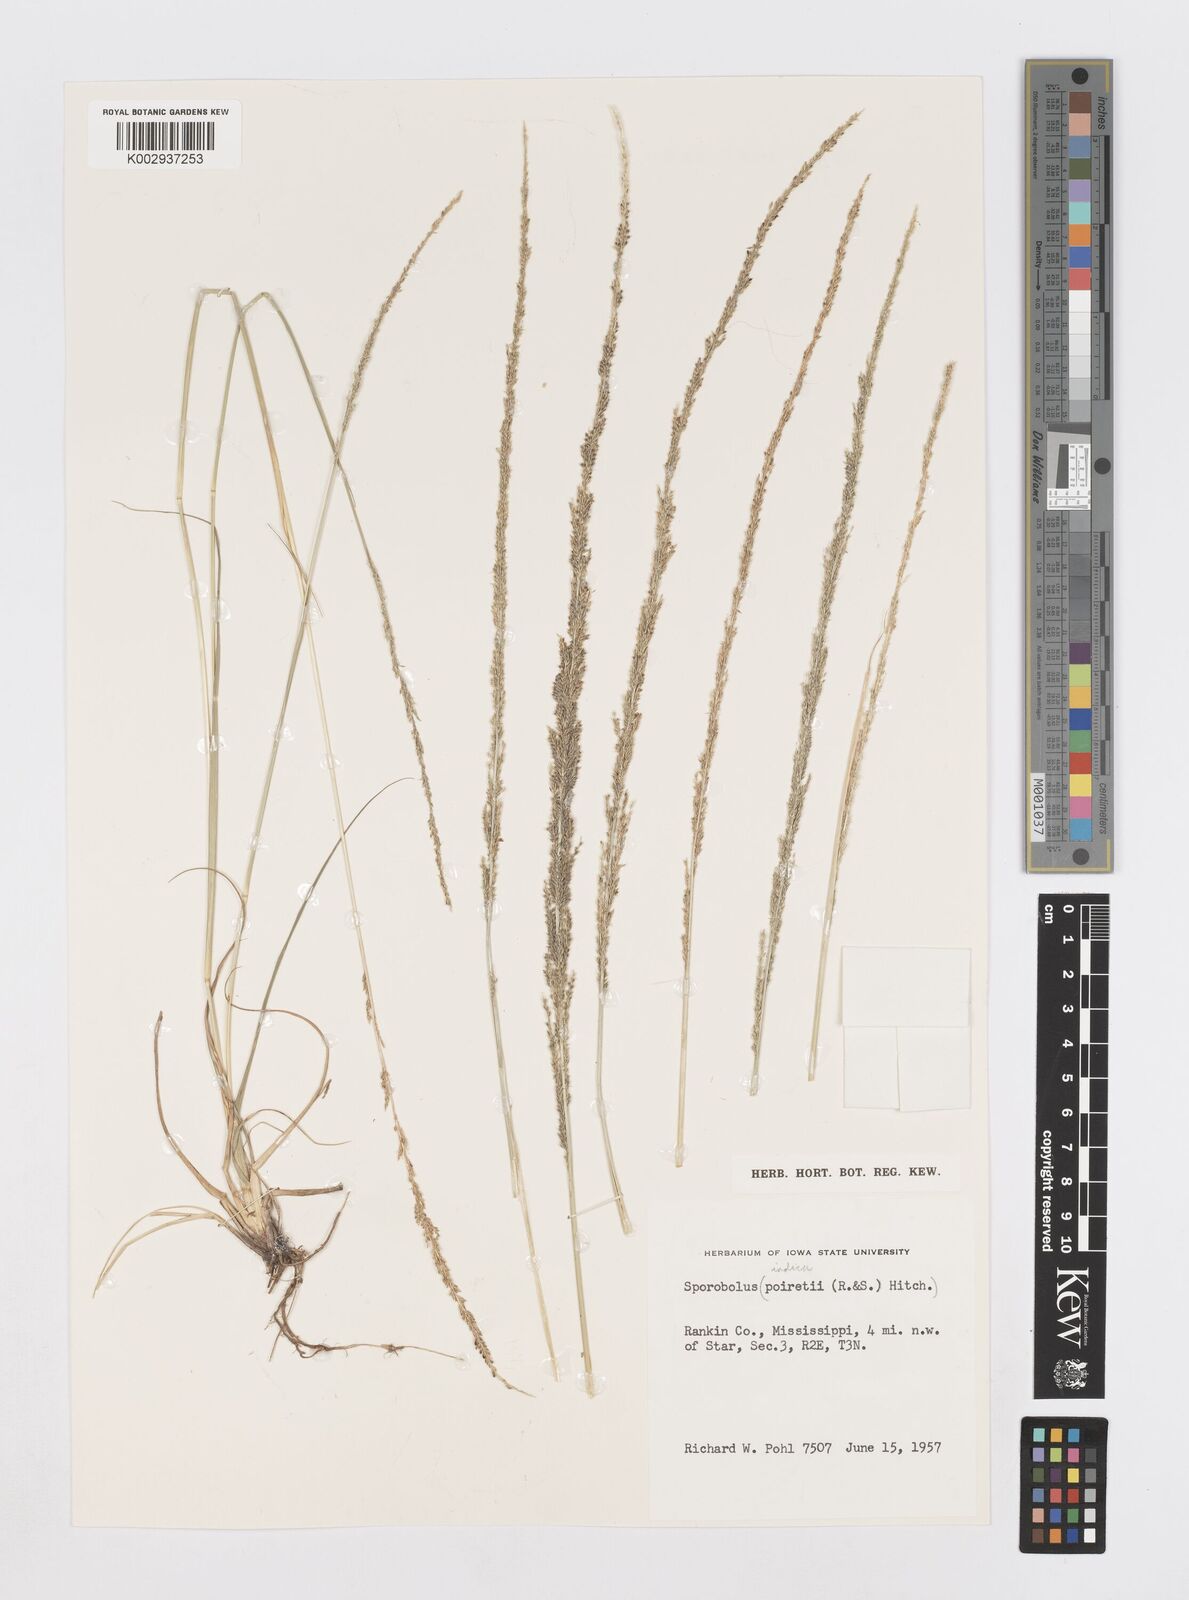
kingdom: Plantae
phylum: Tracheophyta
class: Liliopsida
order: Poales
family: Poaceae
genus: Sporobolus
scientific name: Sporobolus indicus
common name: Smut grass
